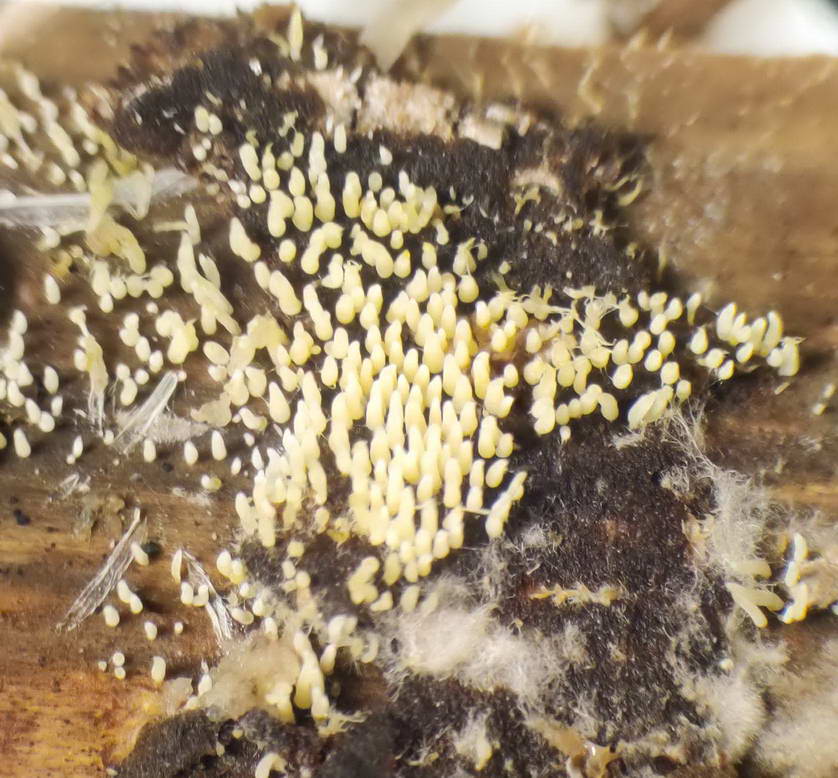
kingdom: Fungi
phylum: Basidiomycota
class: Agaricomycetes
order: Agaricales
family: Clavariaceae
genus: Mucronella
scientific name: Mucronella flava
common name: gul hængepig
